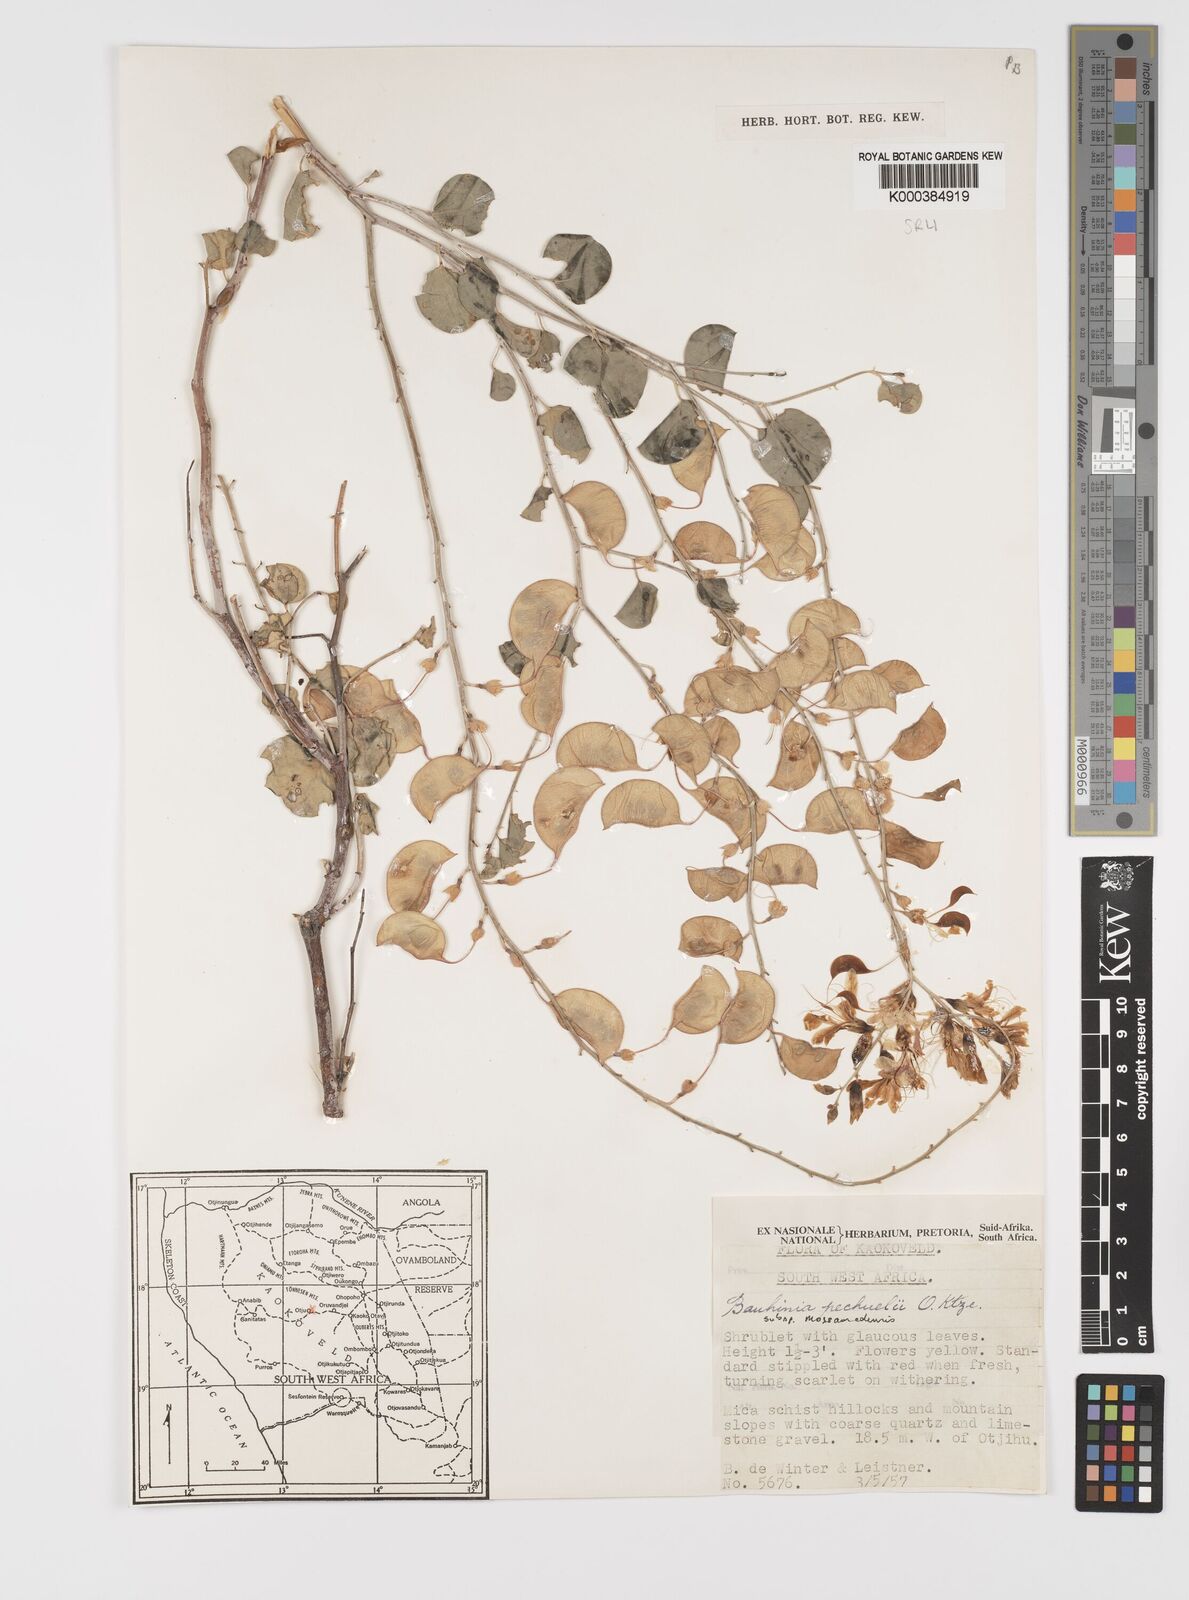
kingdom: Plantae
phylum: Tracheophyta
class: Magnoliopsida
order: Fabales
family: Fabaceae
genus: Bauhinia
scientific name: Bauhinia
